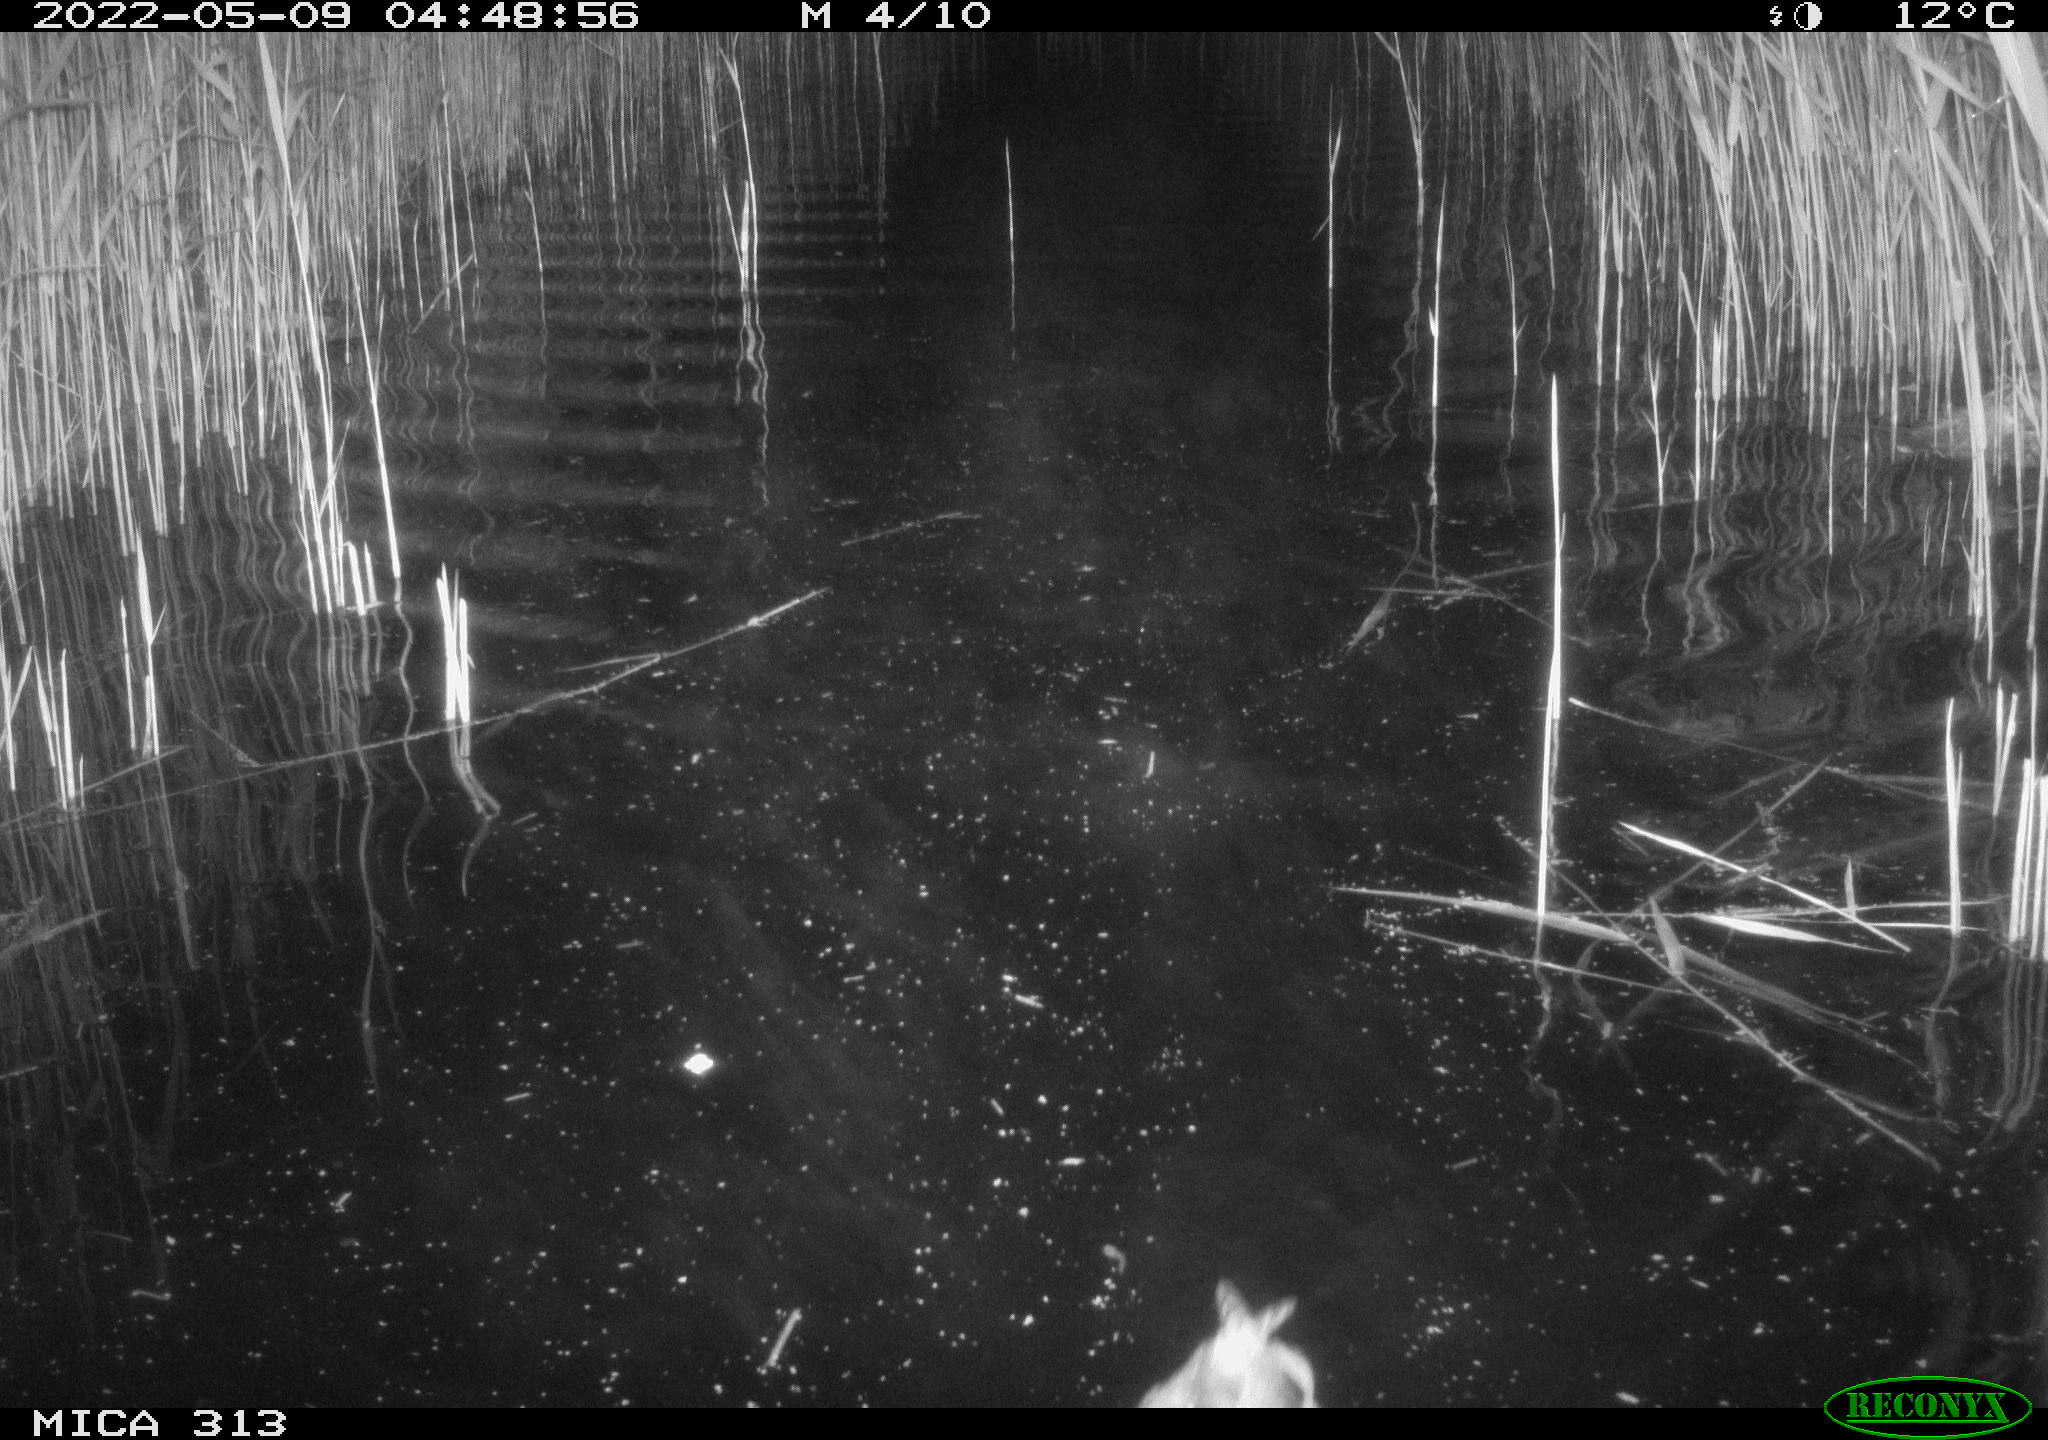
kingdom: Animalia
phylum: Chordata
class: Aves
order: Anseriformes
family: Anatidae
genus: Anas
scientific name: Anas platyrhynchos
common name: Mallard
